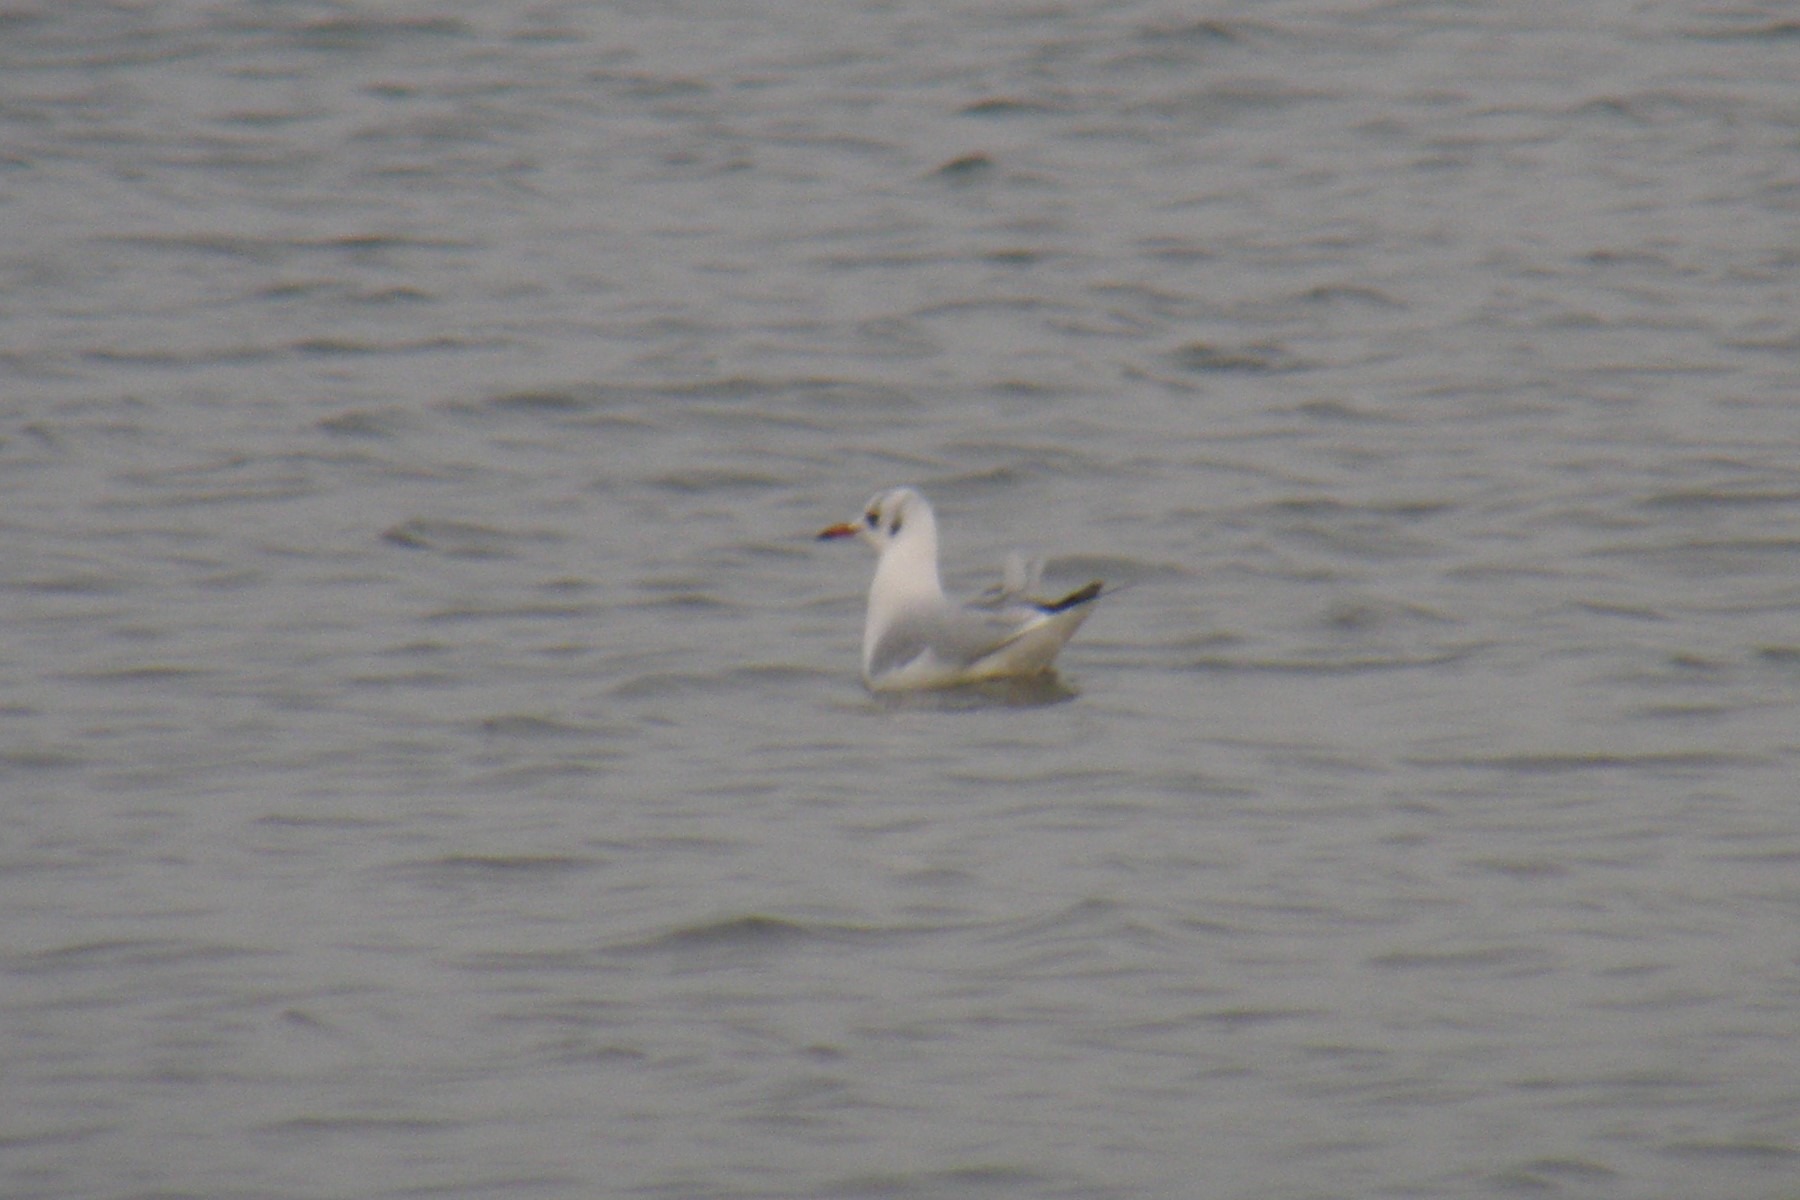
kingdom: Animalia
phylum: Chordata
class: Aves
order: Charadriiformes
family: Laridae
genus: Chroicocephalus
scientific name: Chroicocephalus ridibundus
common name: Hættemåge
